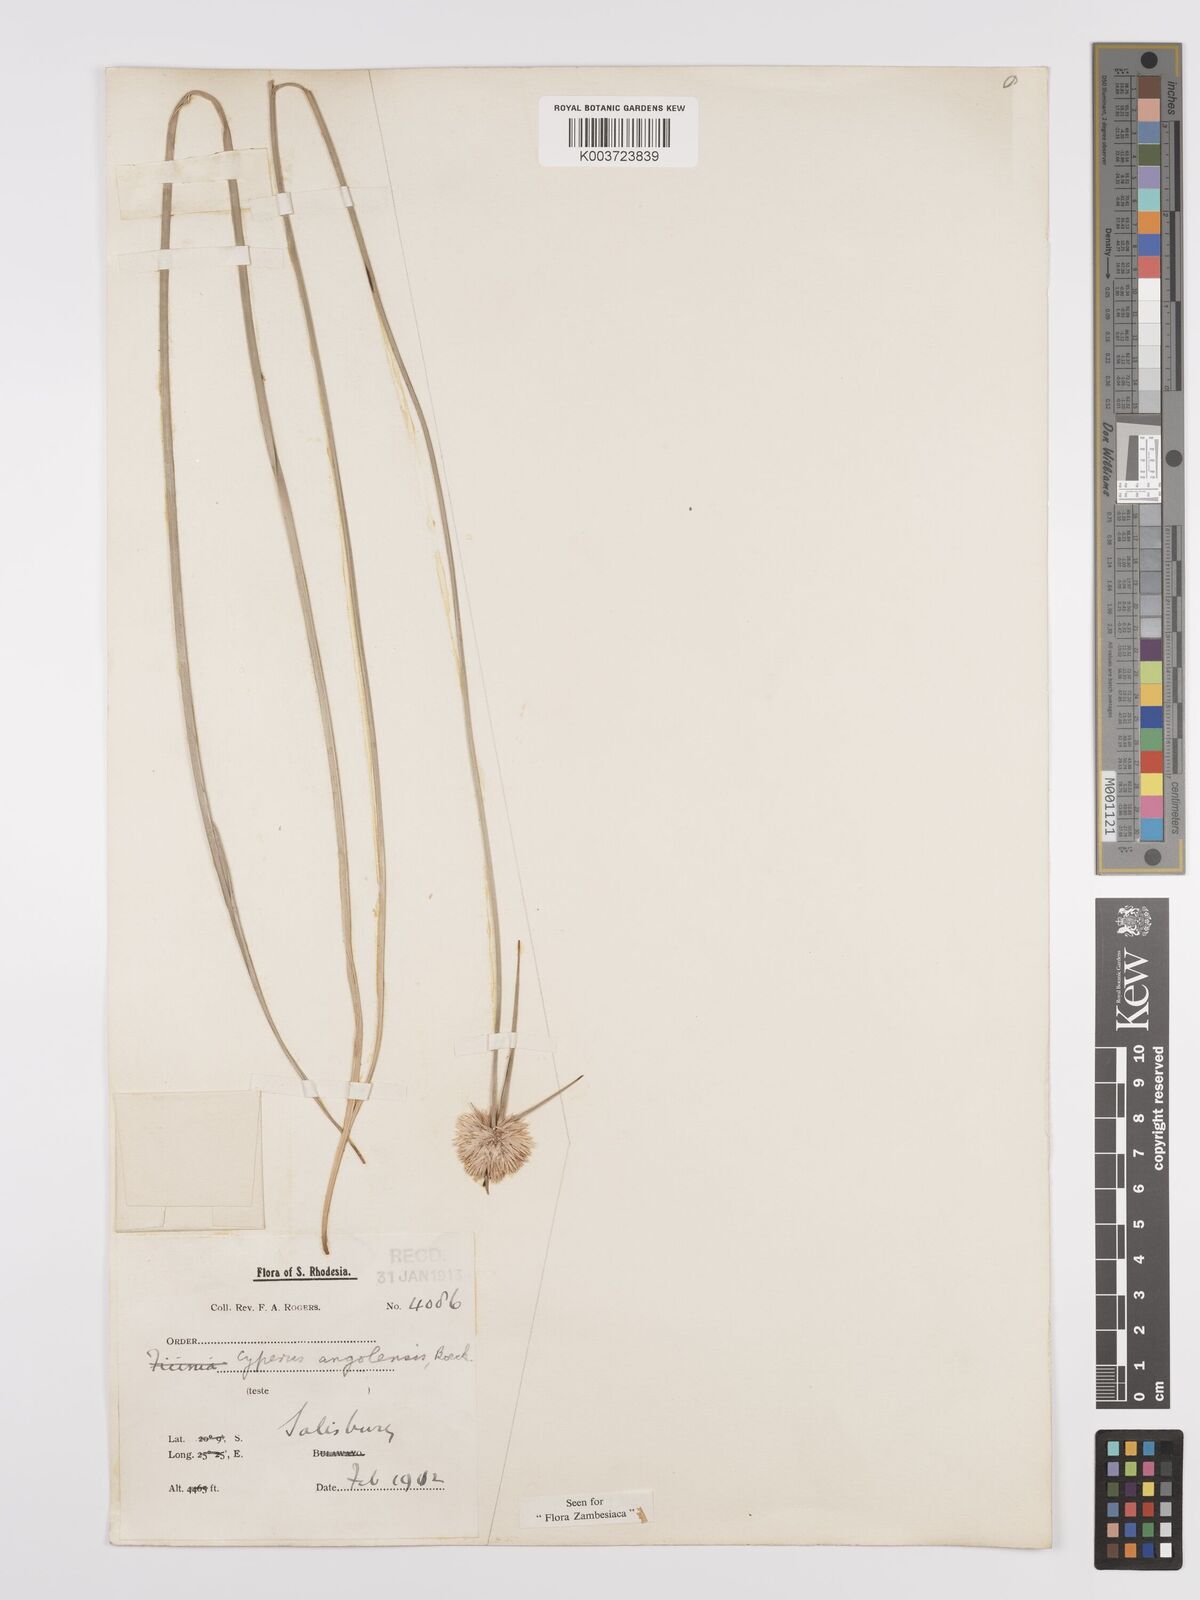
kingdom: Plantae
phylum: Tracheophyta
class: Liliopsida
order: Poales
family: Cyperaceae
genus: Cyperus
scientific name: Cyperus angolensis
